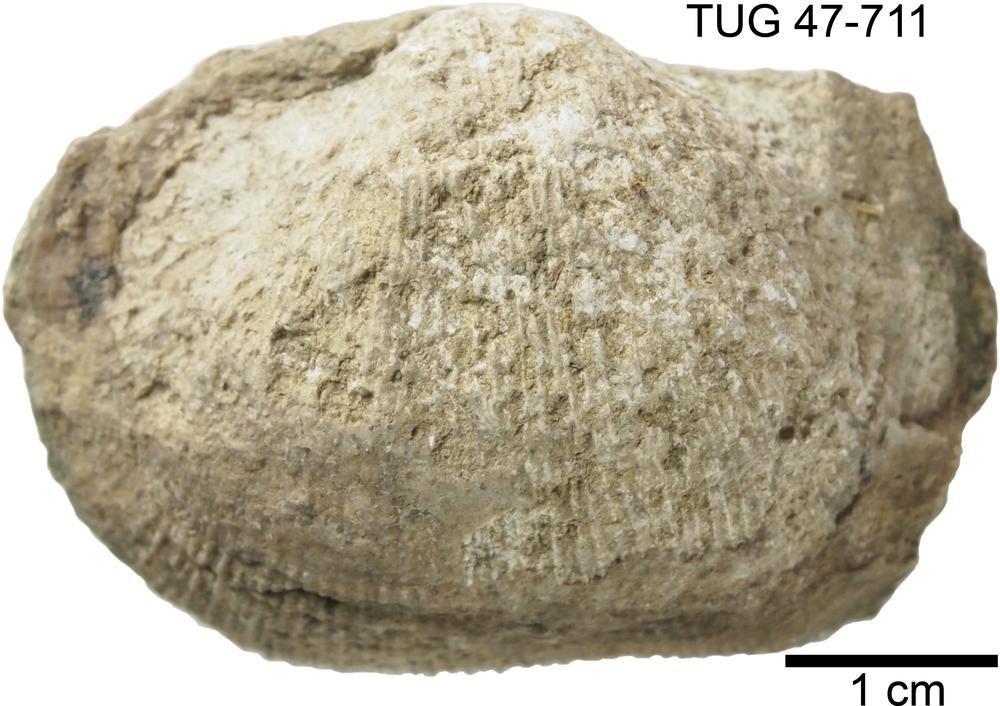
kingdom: Animalia
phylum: Brachiopoda
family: Gonambonitidae
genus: Estlandia
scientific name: Estlandia pyron
